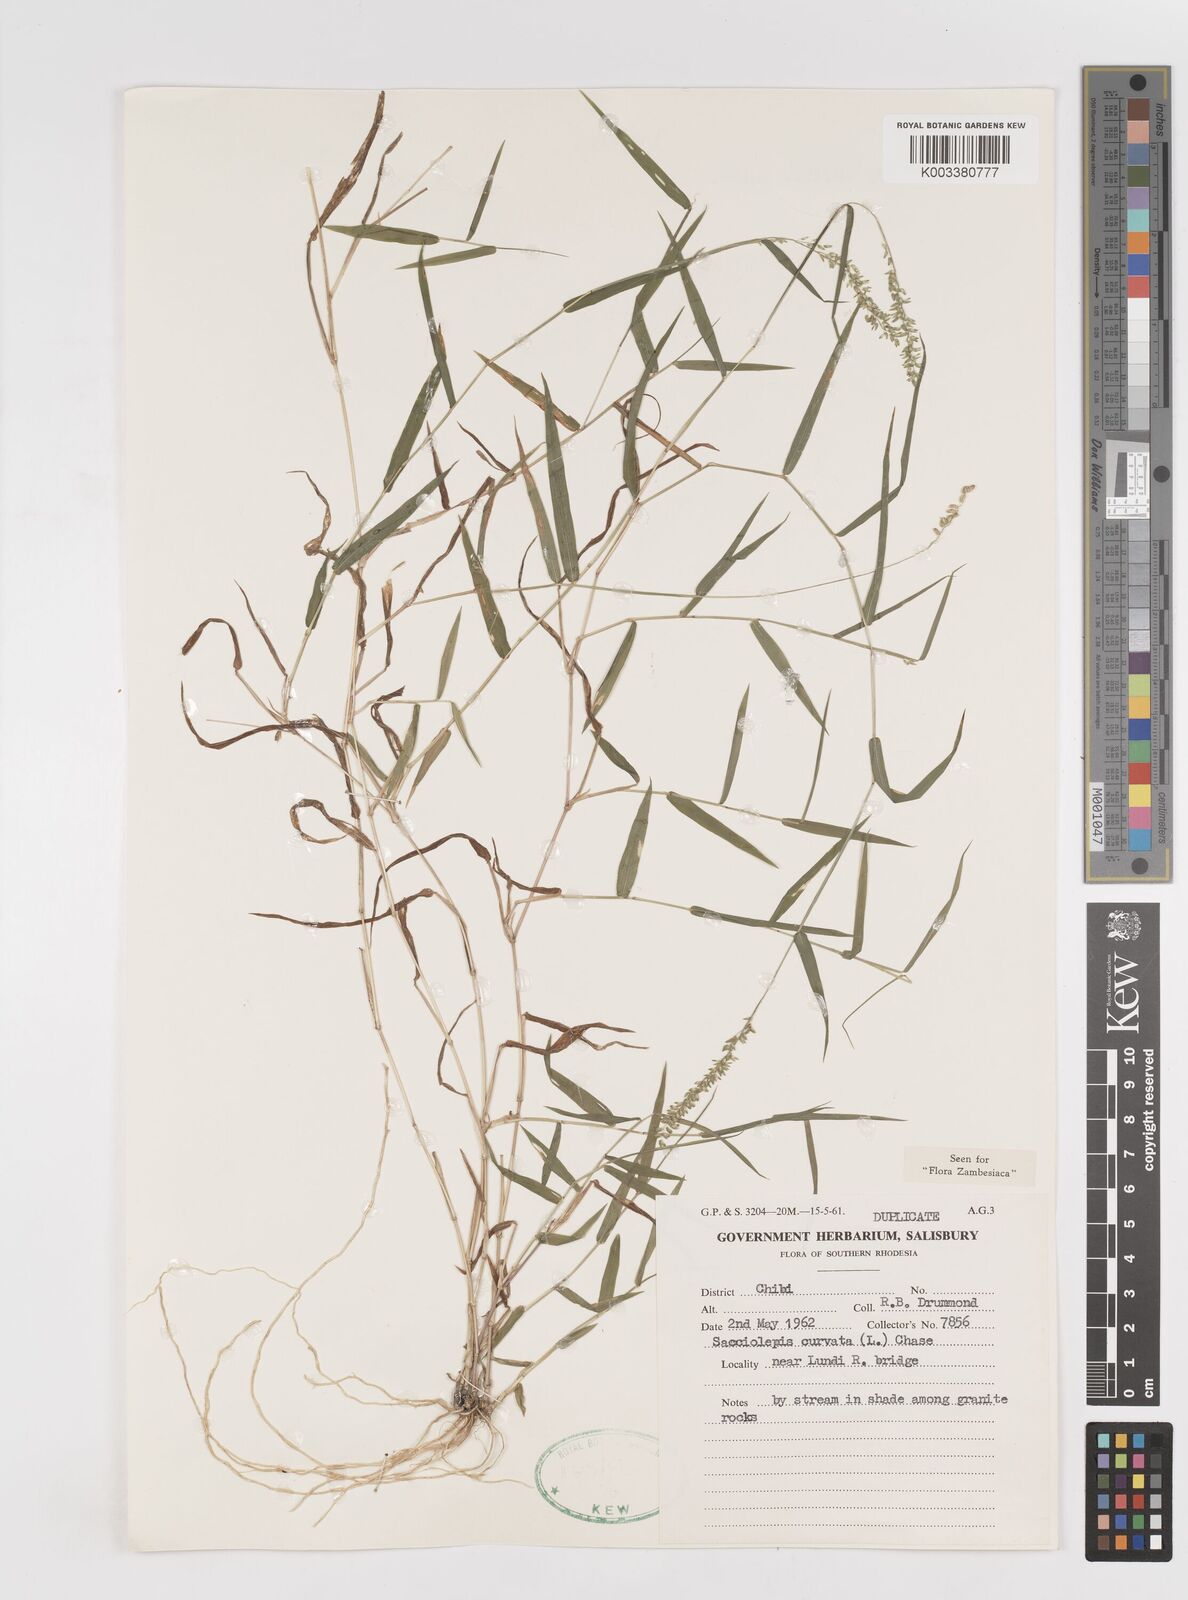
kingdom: Plantae
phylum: Tracheophyta
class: Liliopsida
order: Poales
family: Poaceae
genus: Sacciolepis
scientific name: Sacciolepis curvata
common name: Forest hood grass
